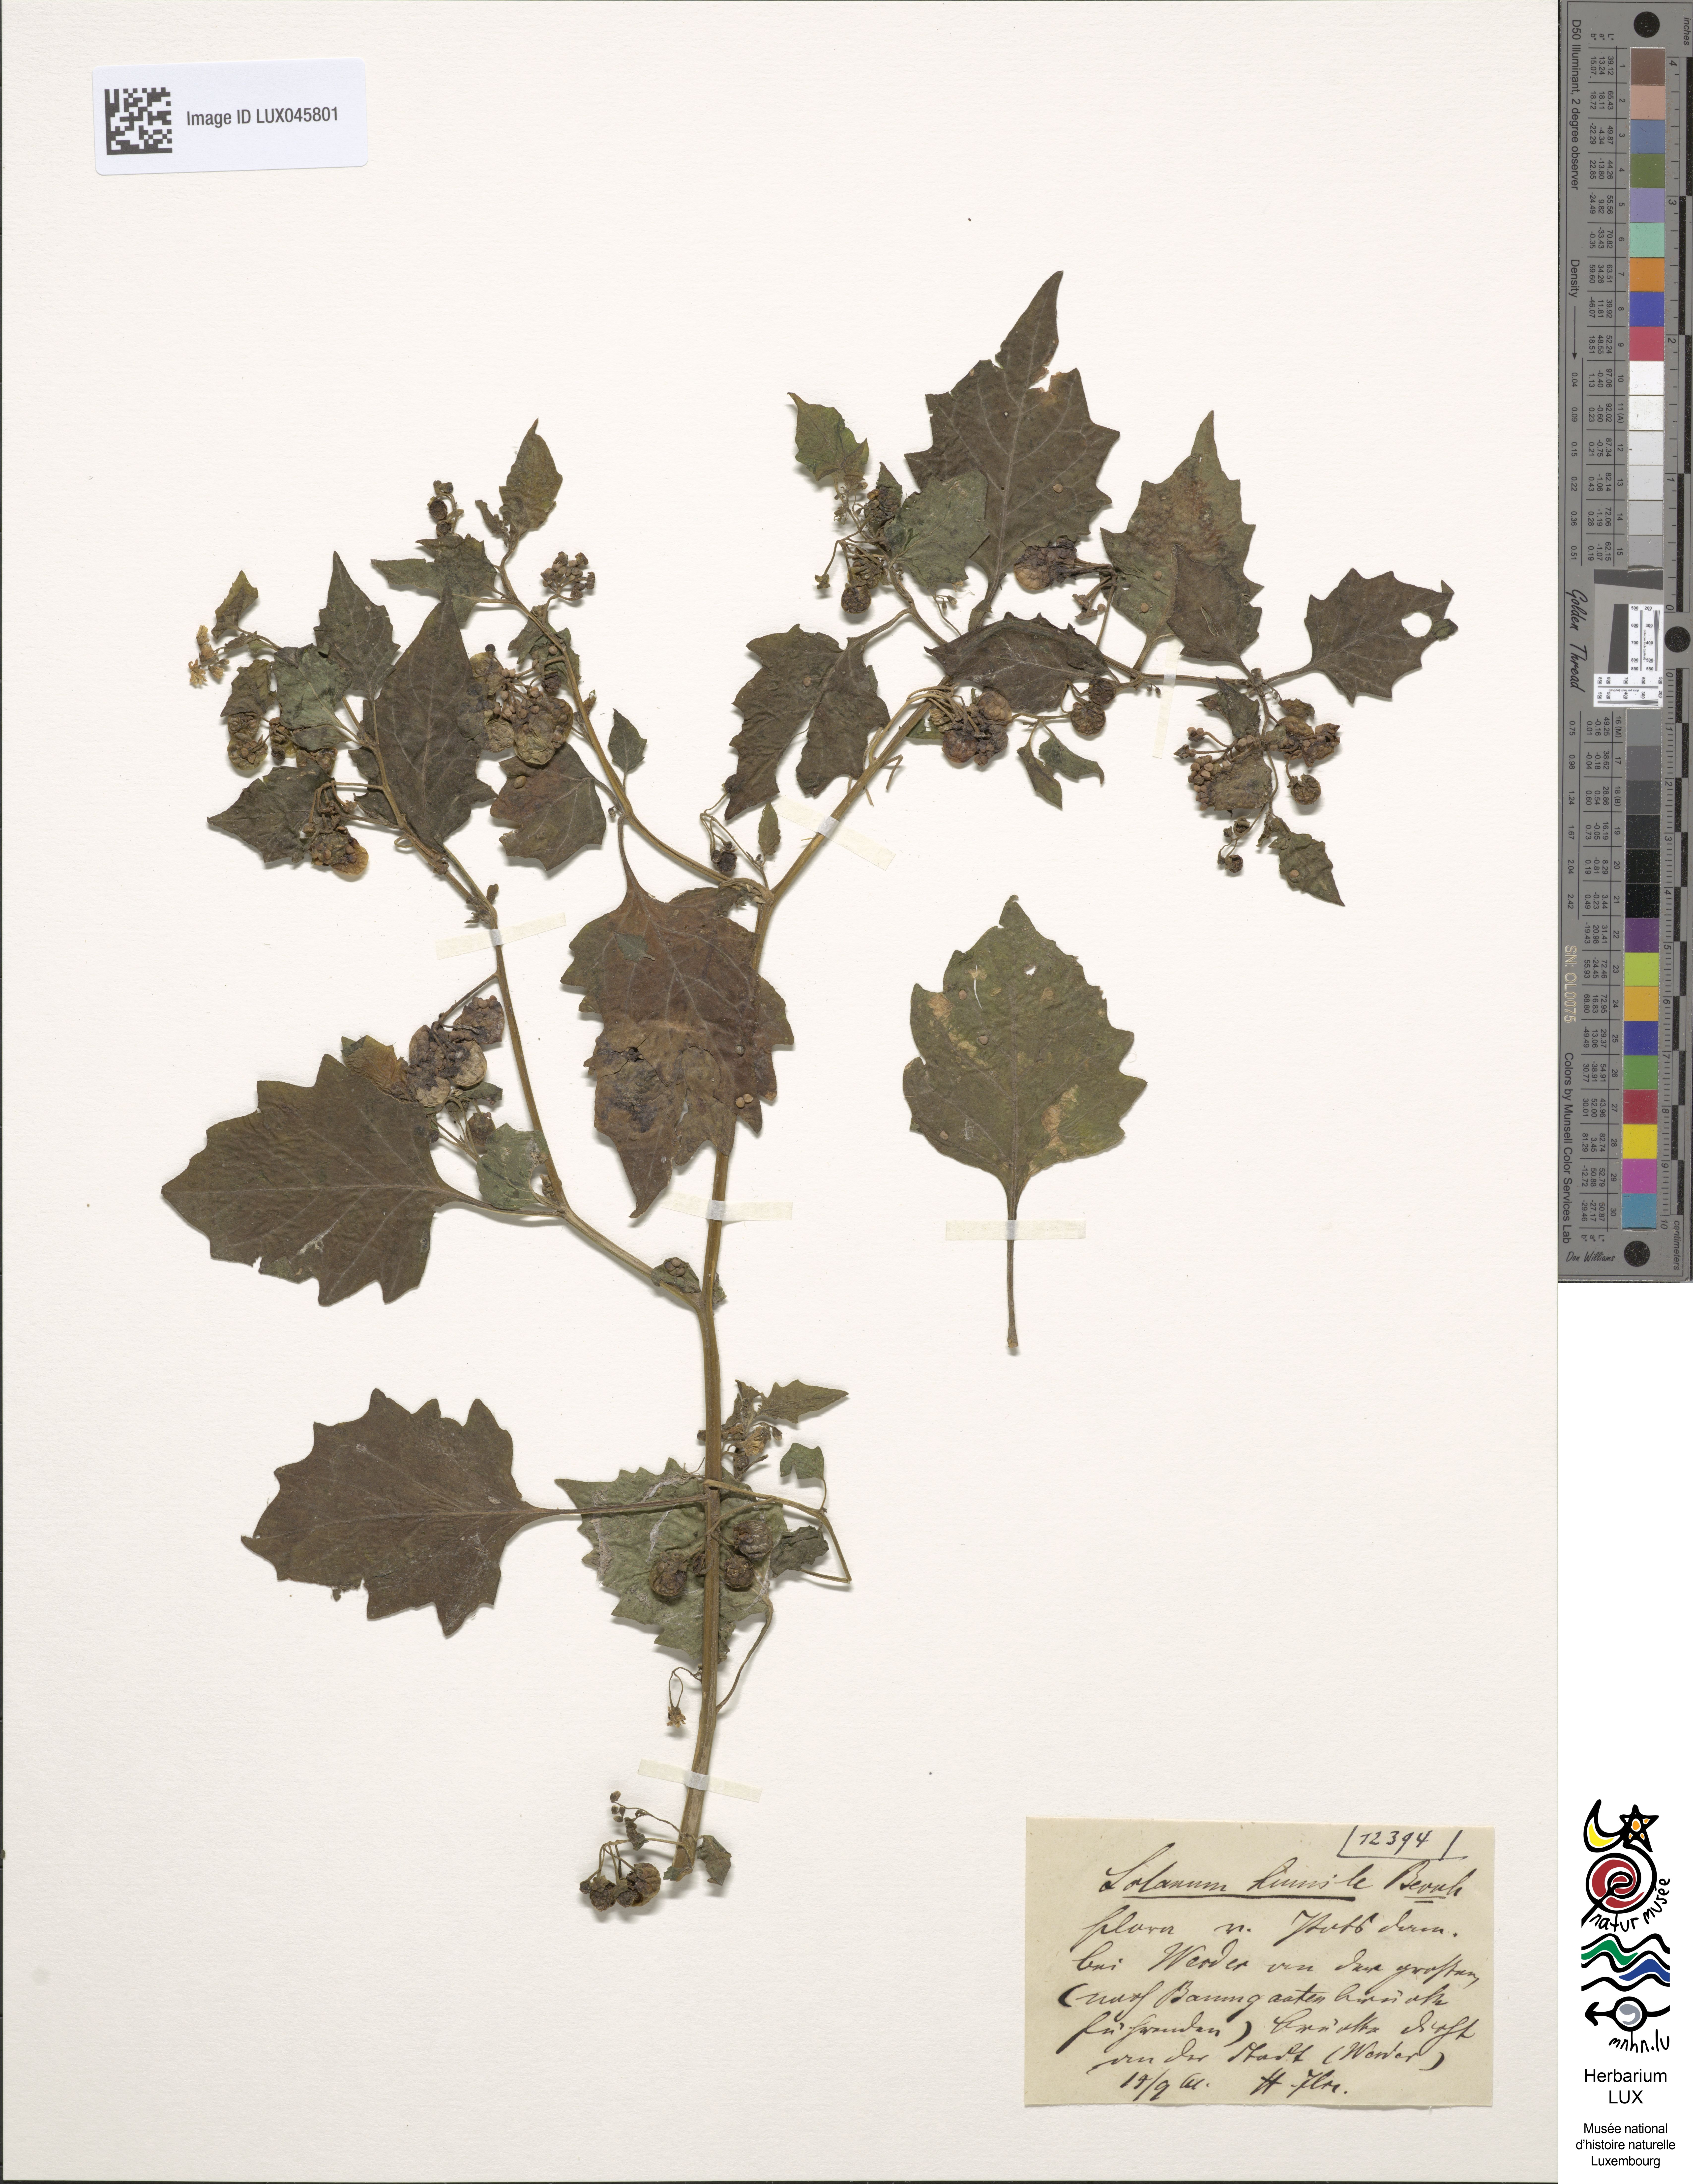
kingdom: Plantae
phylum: Tracheophyta
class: Magnoliopsida
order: Solanales
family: Solanaceae
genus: Solanum
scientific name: Solanum nigrum
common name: Black nightshade
